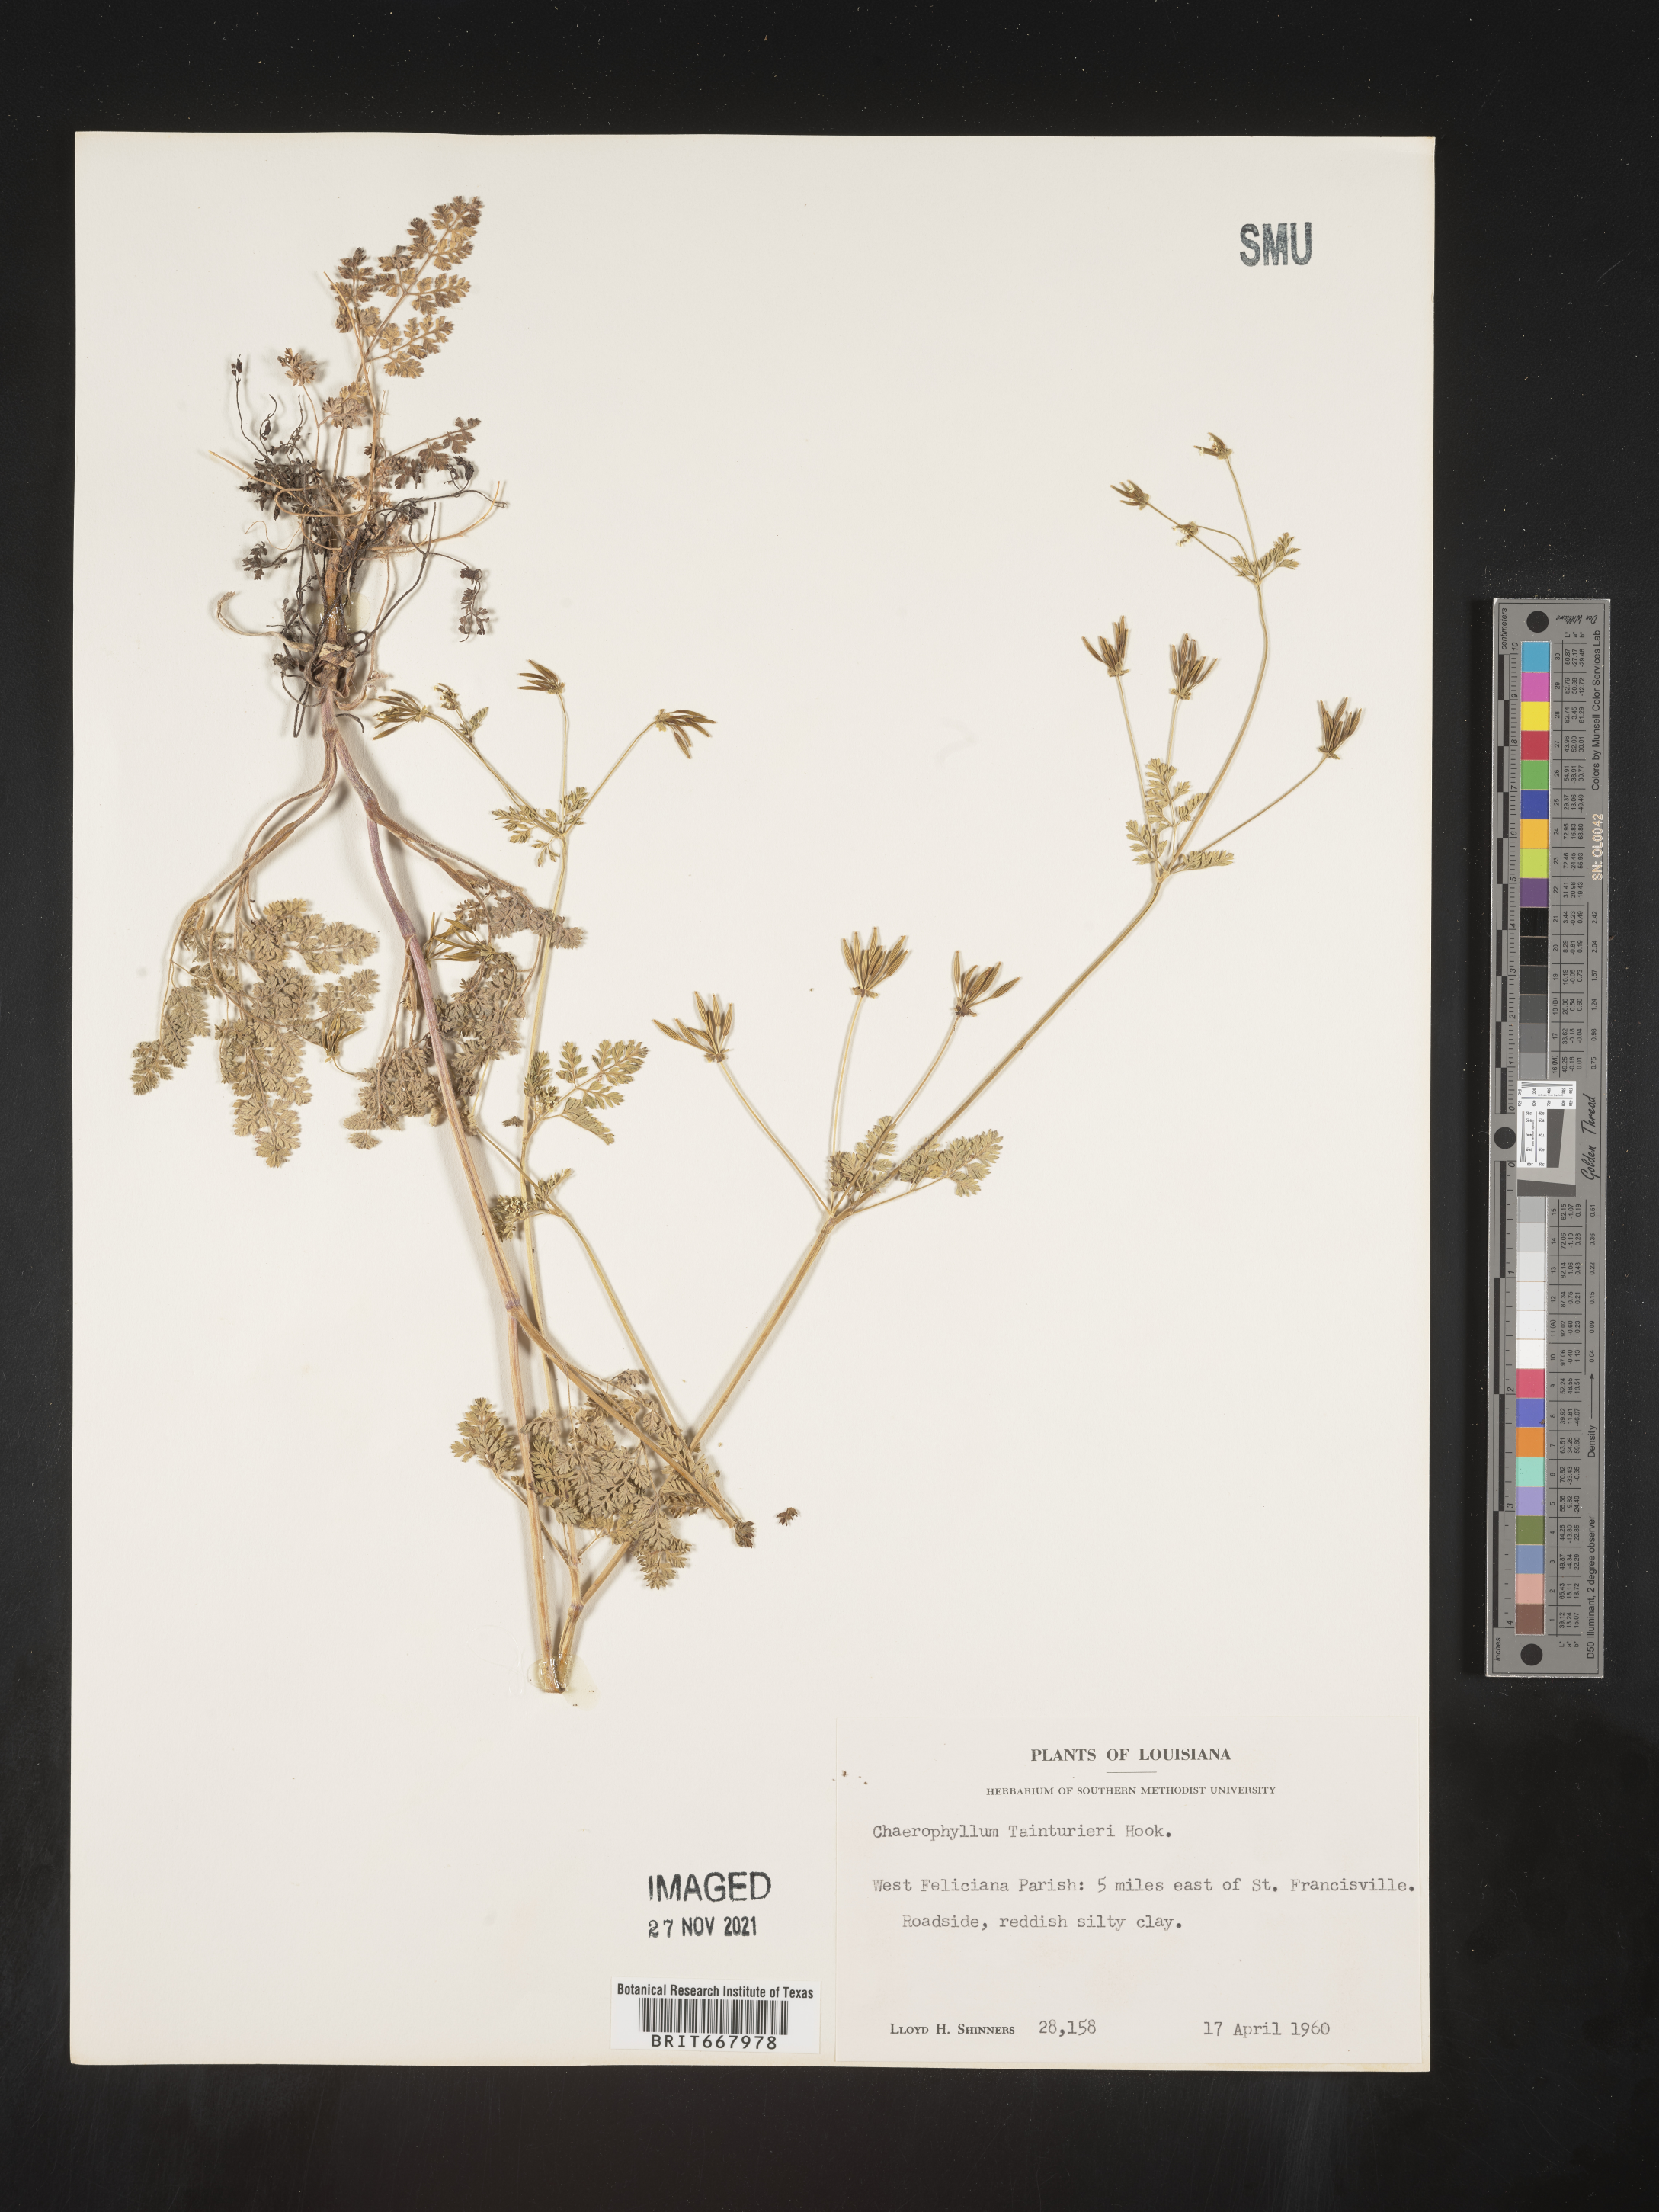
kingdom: Plantae
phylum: Tracheophyta
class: Magnoliopsida
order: Apiales
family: Apiaceae
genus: Chaerophyllum
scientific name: Chaerophyllum tainturieri
